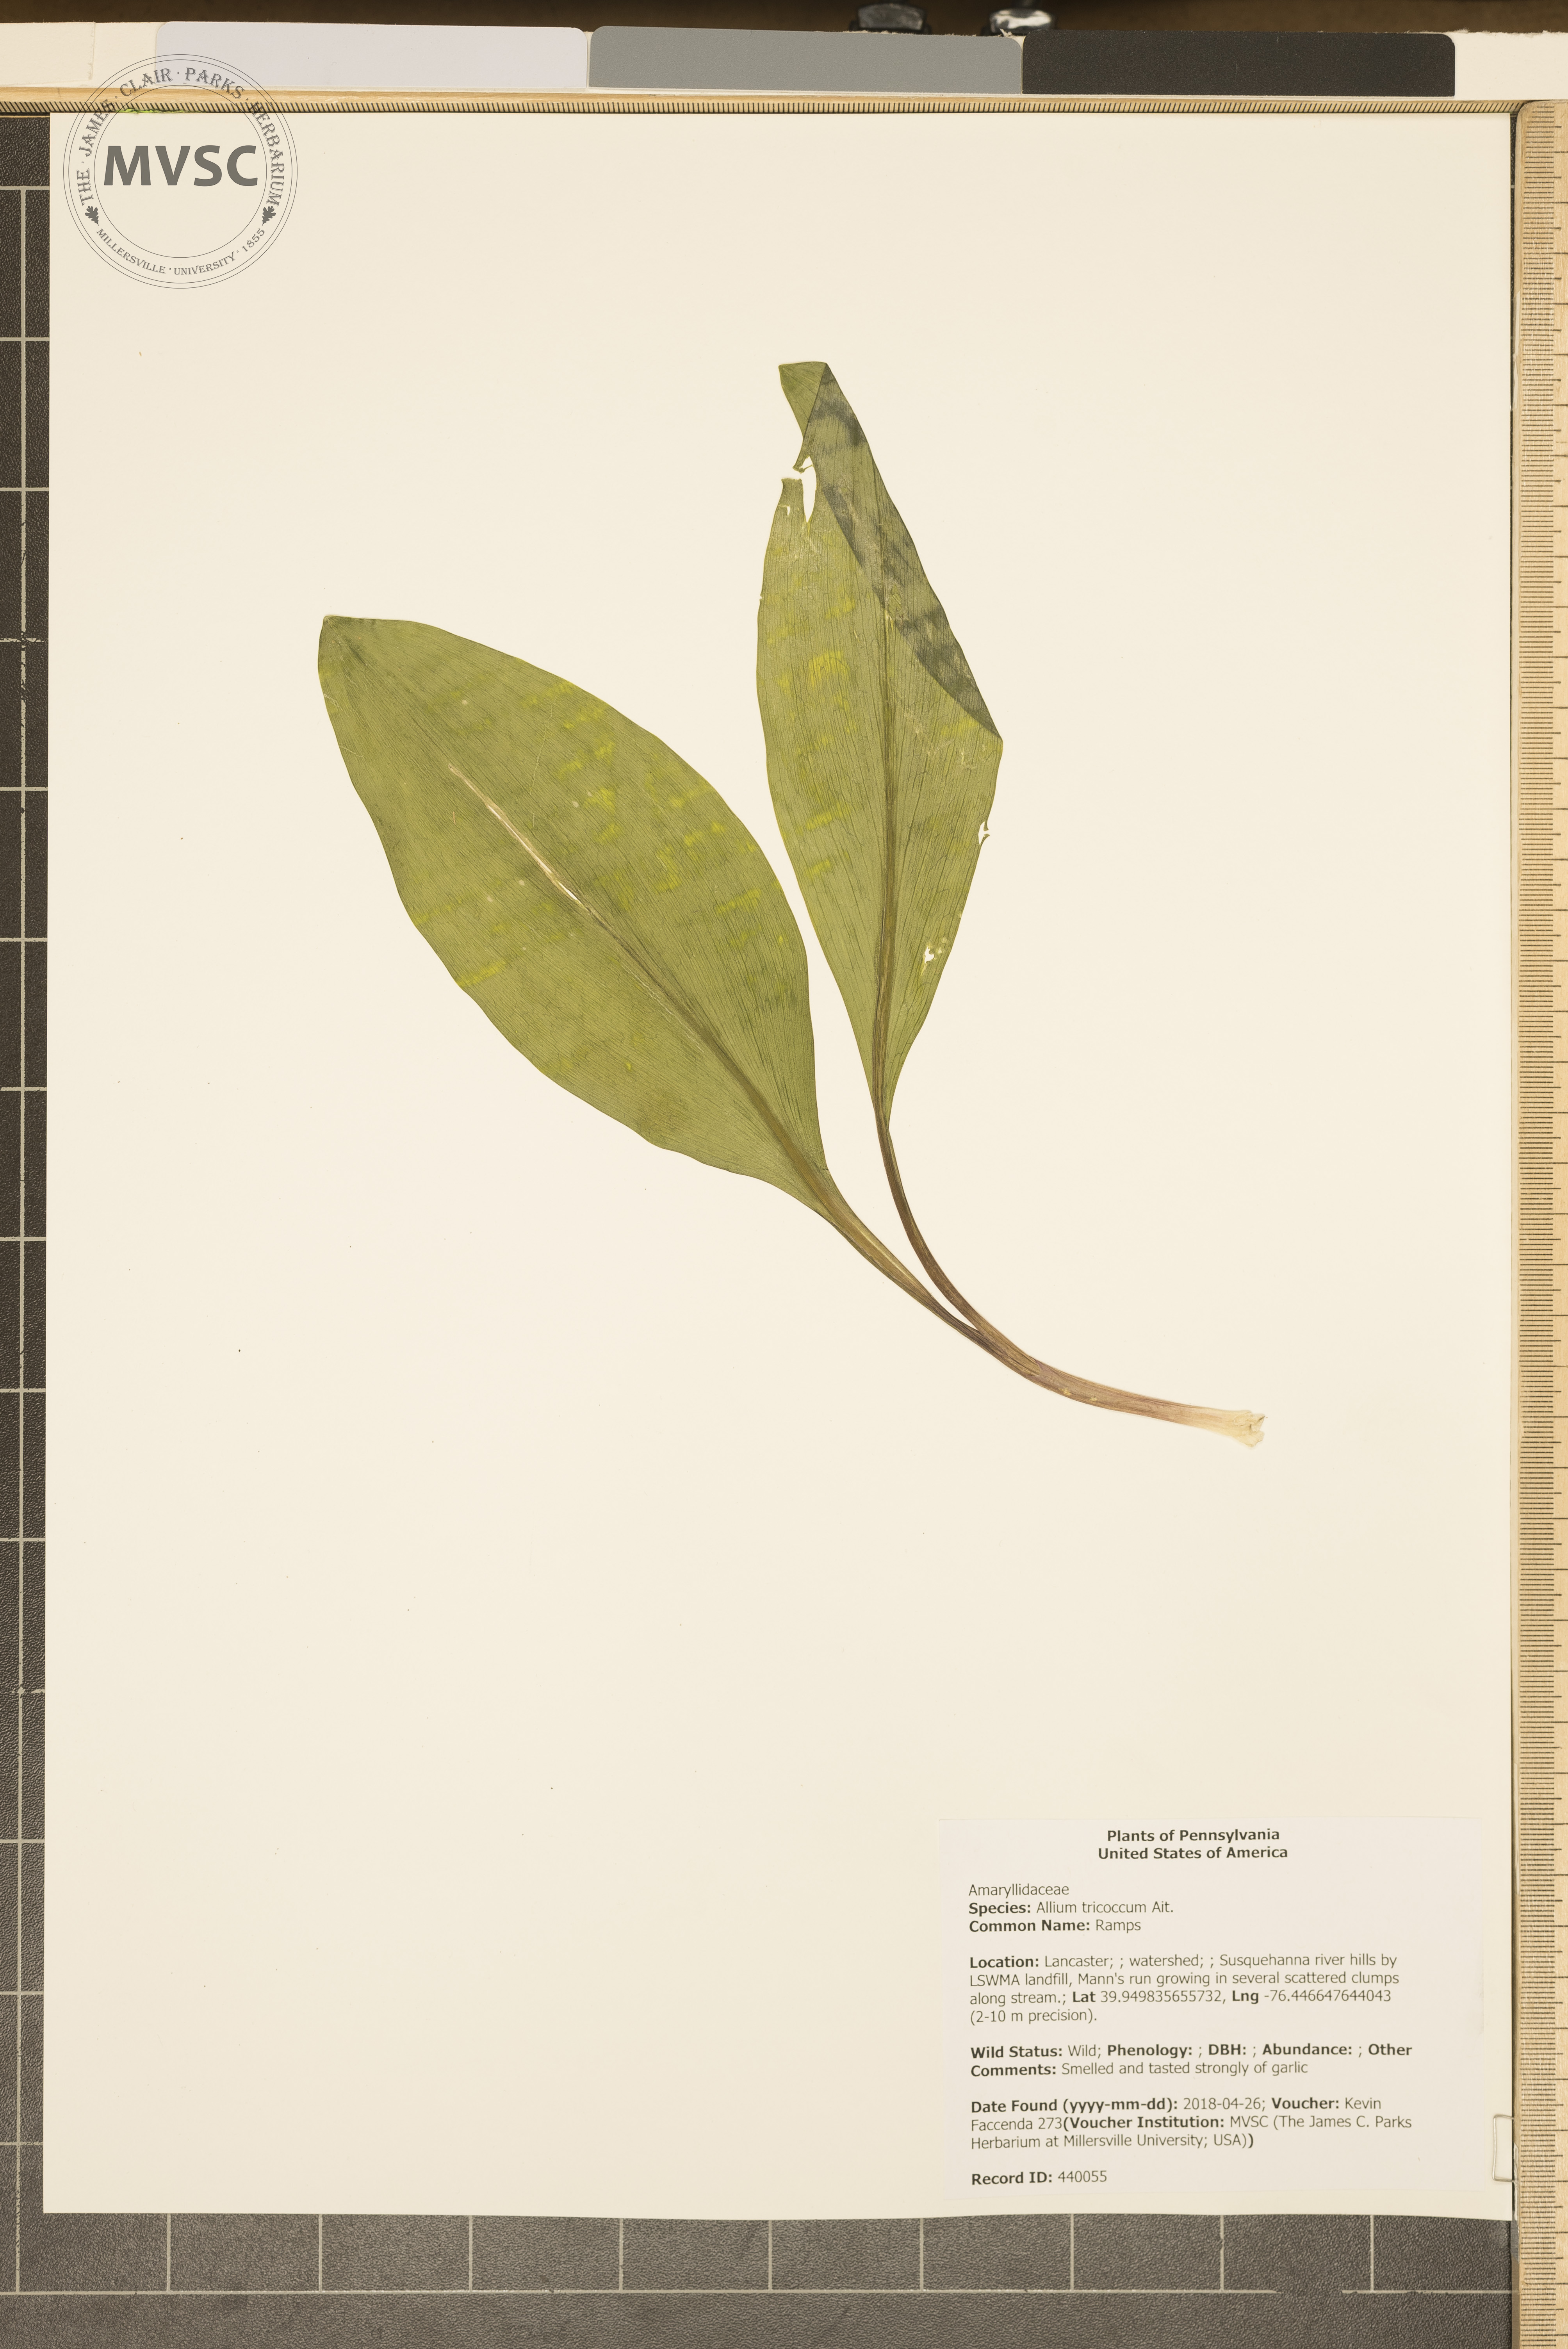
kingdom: Plantae
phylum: Tracheophyta
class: Liliopsida
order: Asparagales
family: Amaryllidaceae
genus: Allium
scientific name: Allium tricoccum
